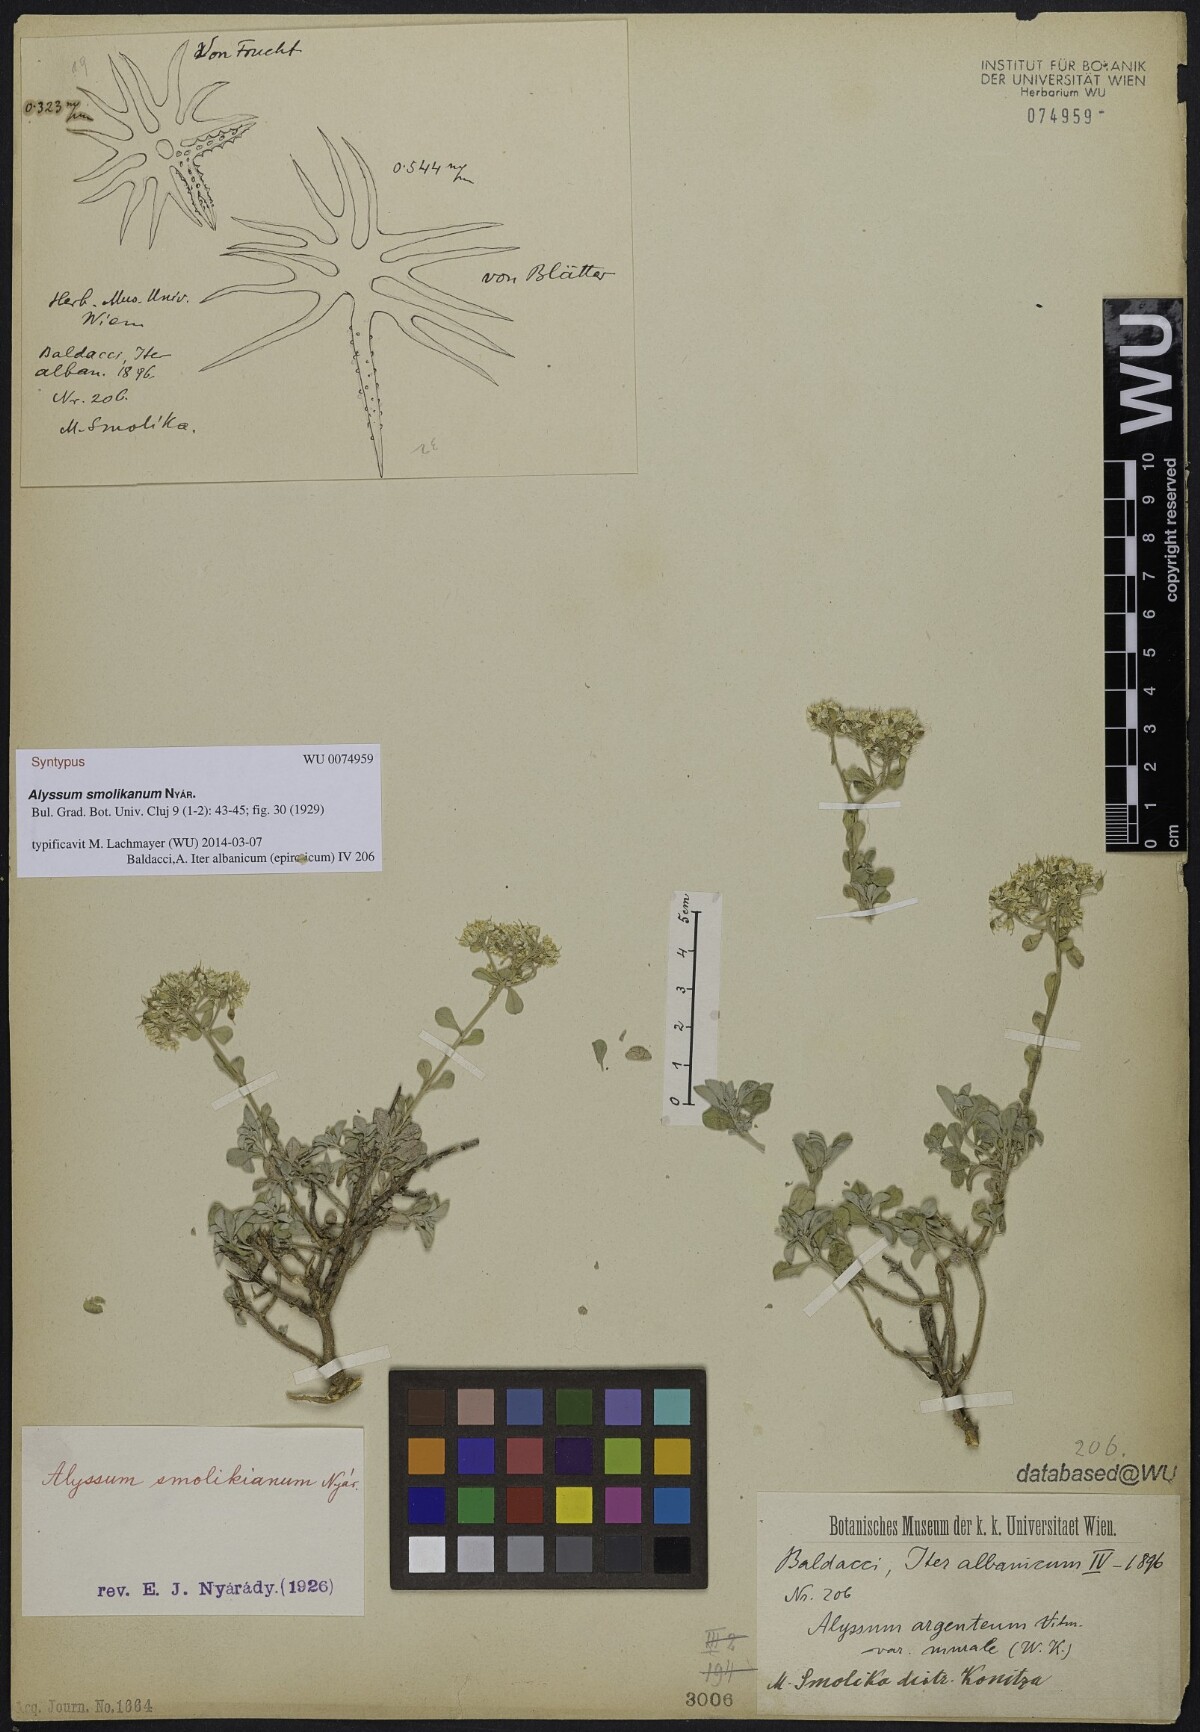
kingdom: Plantae
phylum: Tracheophyta
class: Magnoliopsida
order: Brassicales
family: Brassicaceae
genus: Odontarrhena
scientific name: Odontarrhena smolikana
